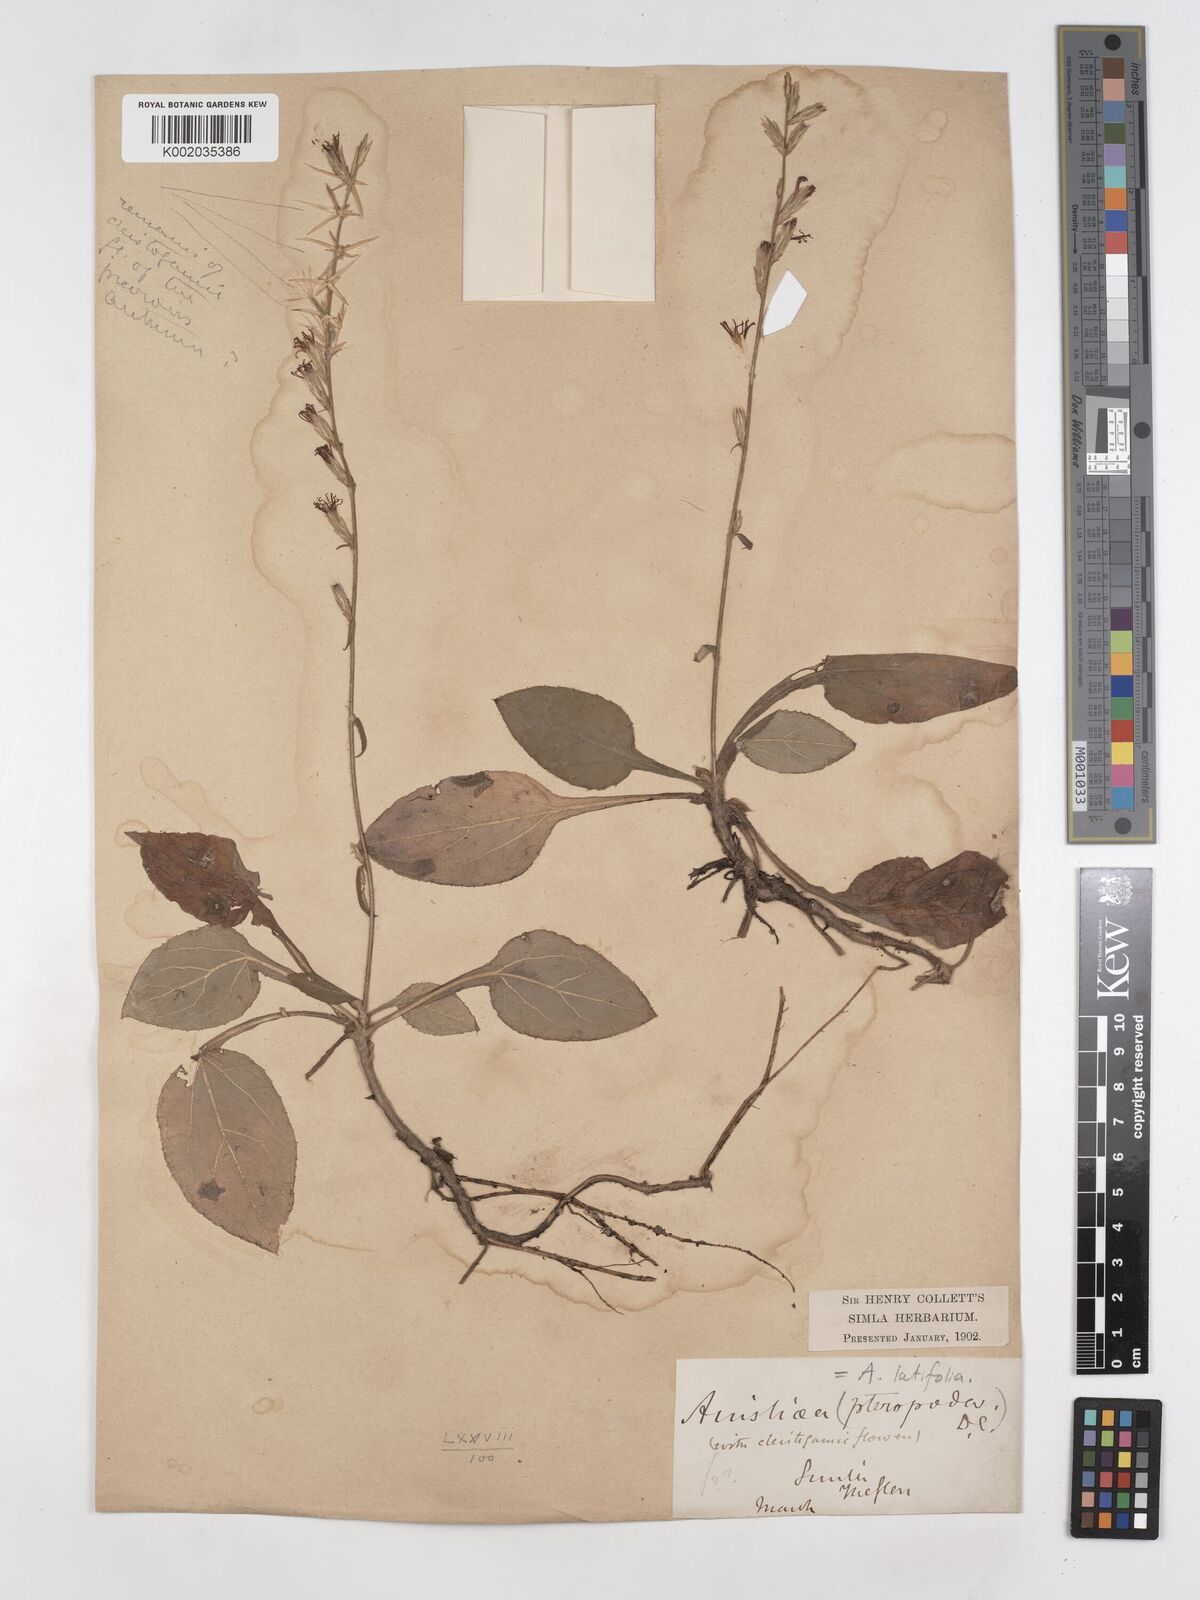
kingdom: Plantae
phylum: Tracheophyta
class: Magnoliopsida
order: Asterales
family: Asteraceae
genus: Ainsliaea
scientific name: Ainsliaea latifolia
